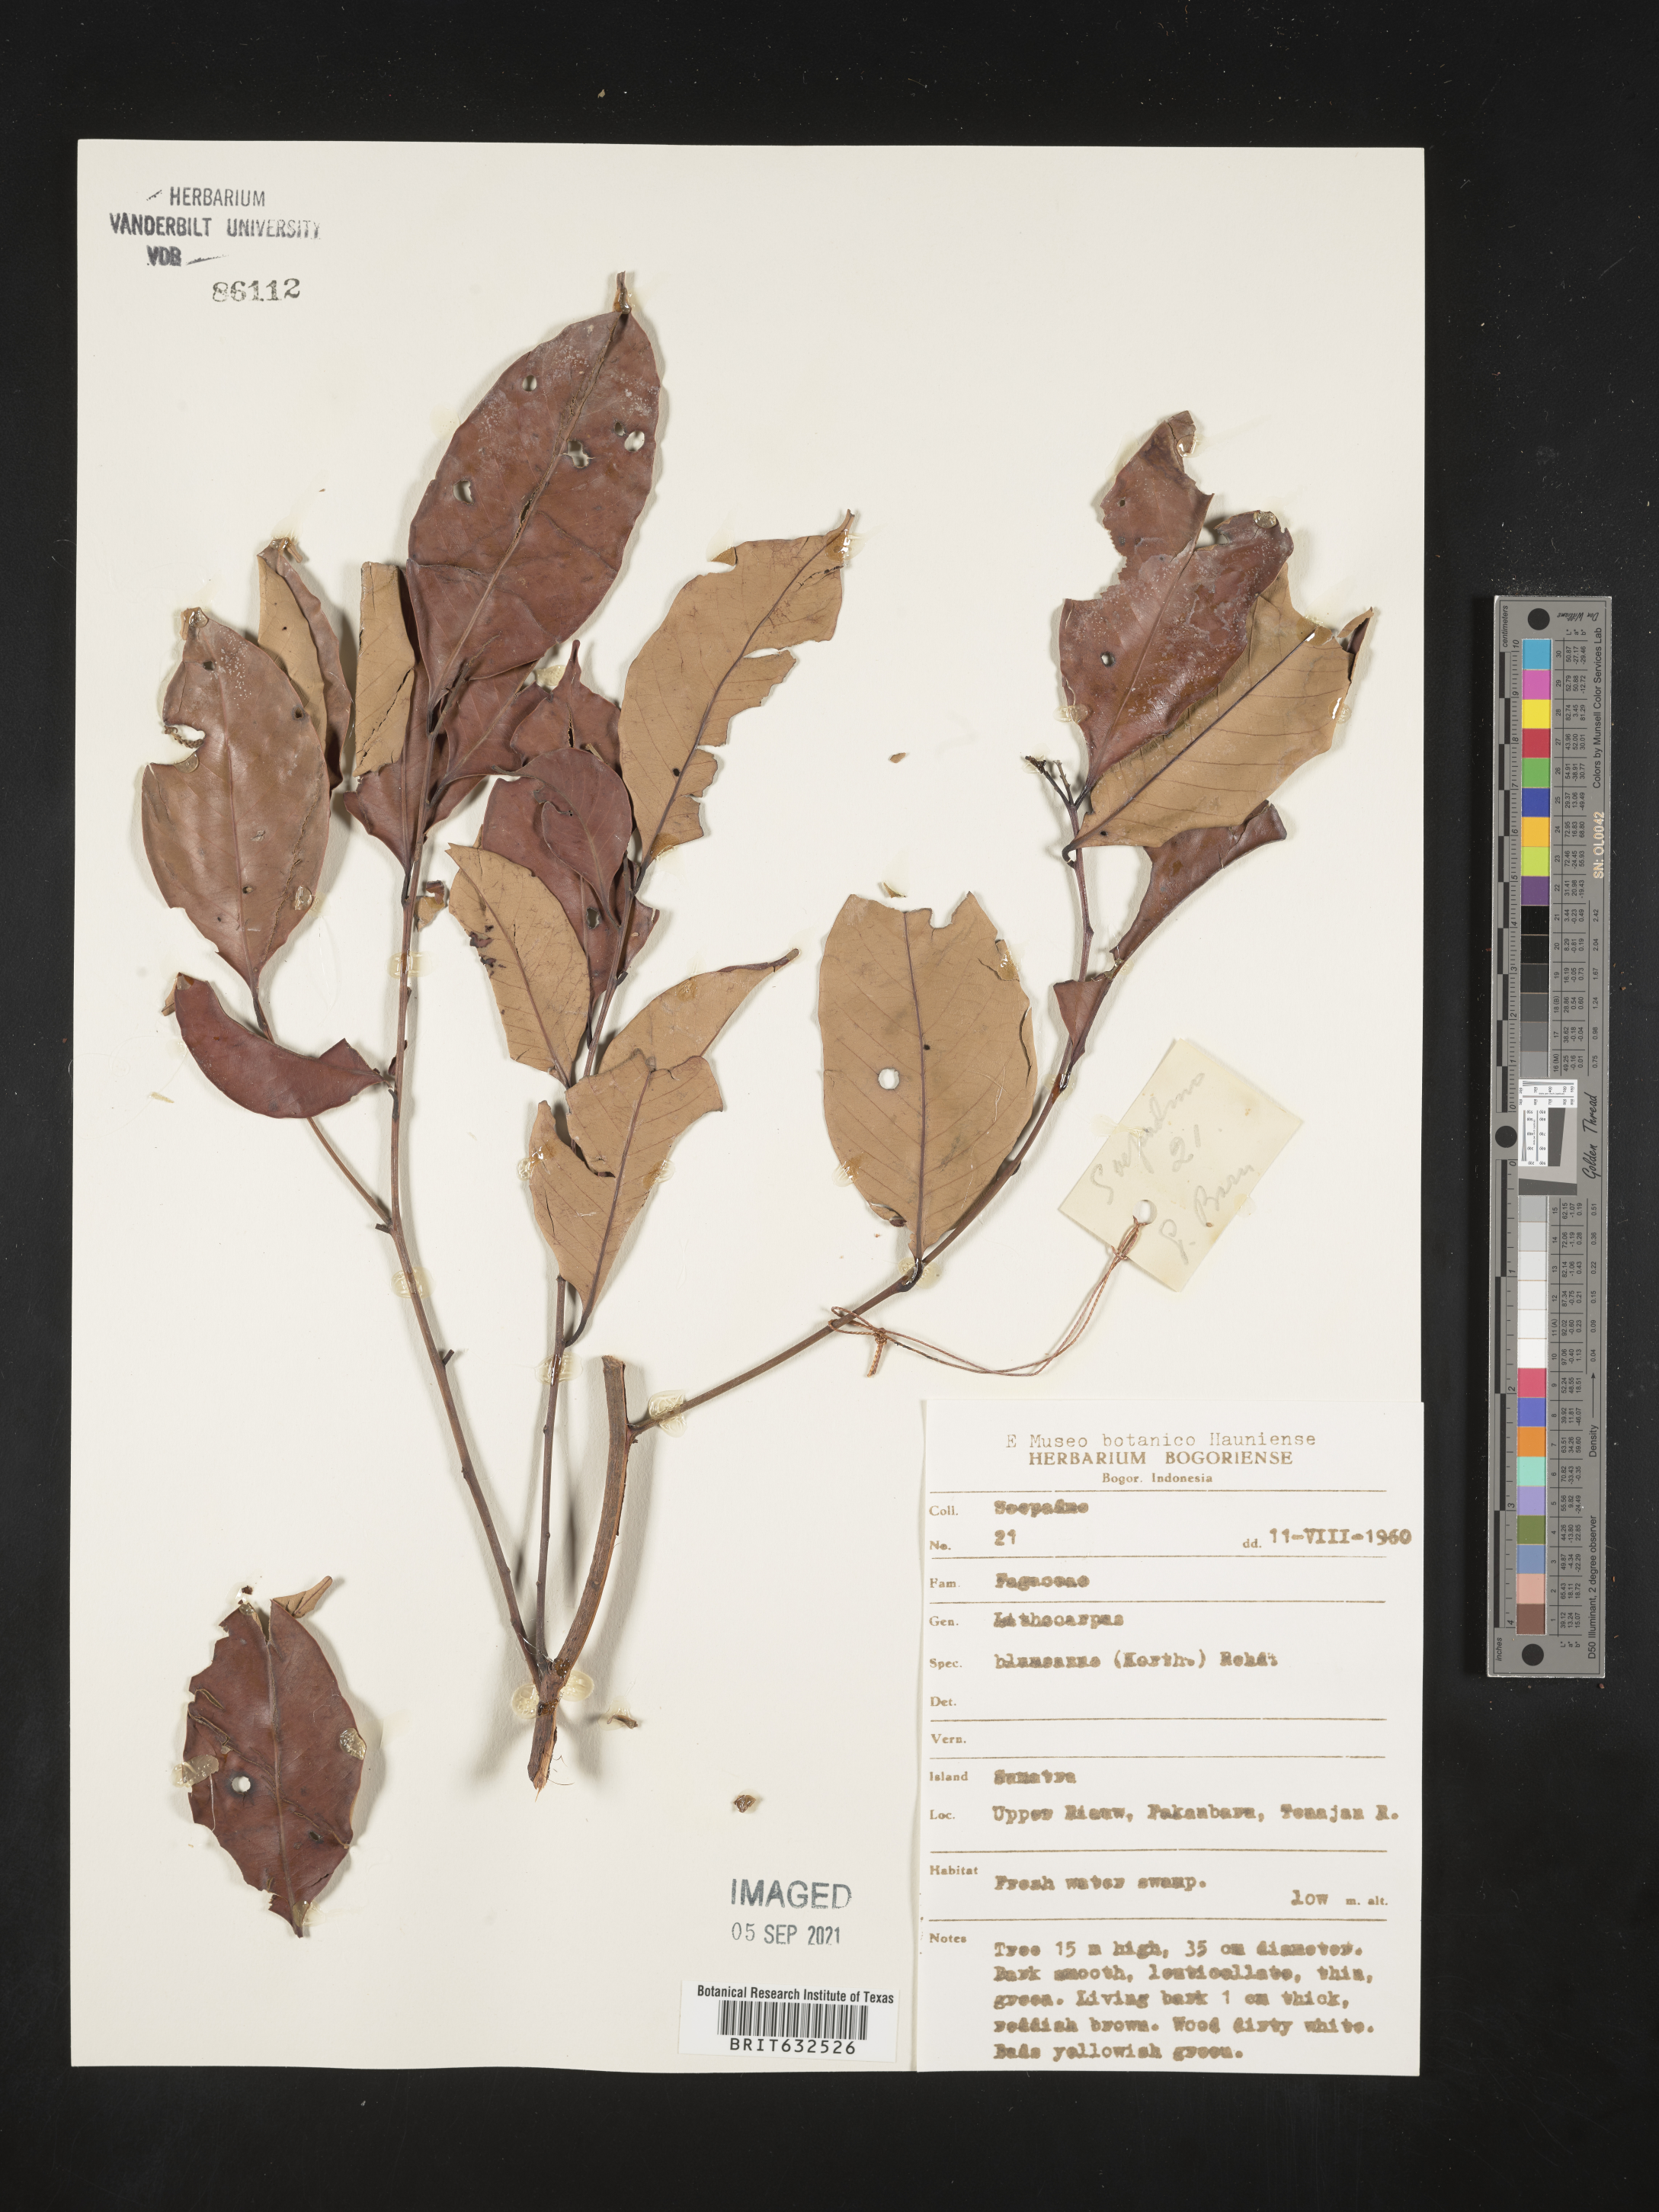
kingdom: Plantae
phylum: Tracheophyta
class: Magnoliopsida
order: Fagales
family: Fagaceae
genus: Lithocarpus
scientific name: Lithocarpus
